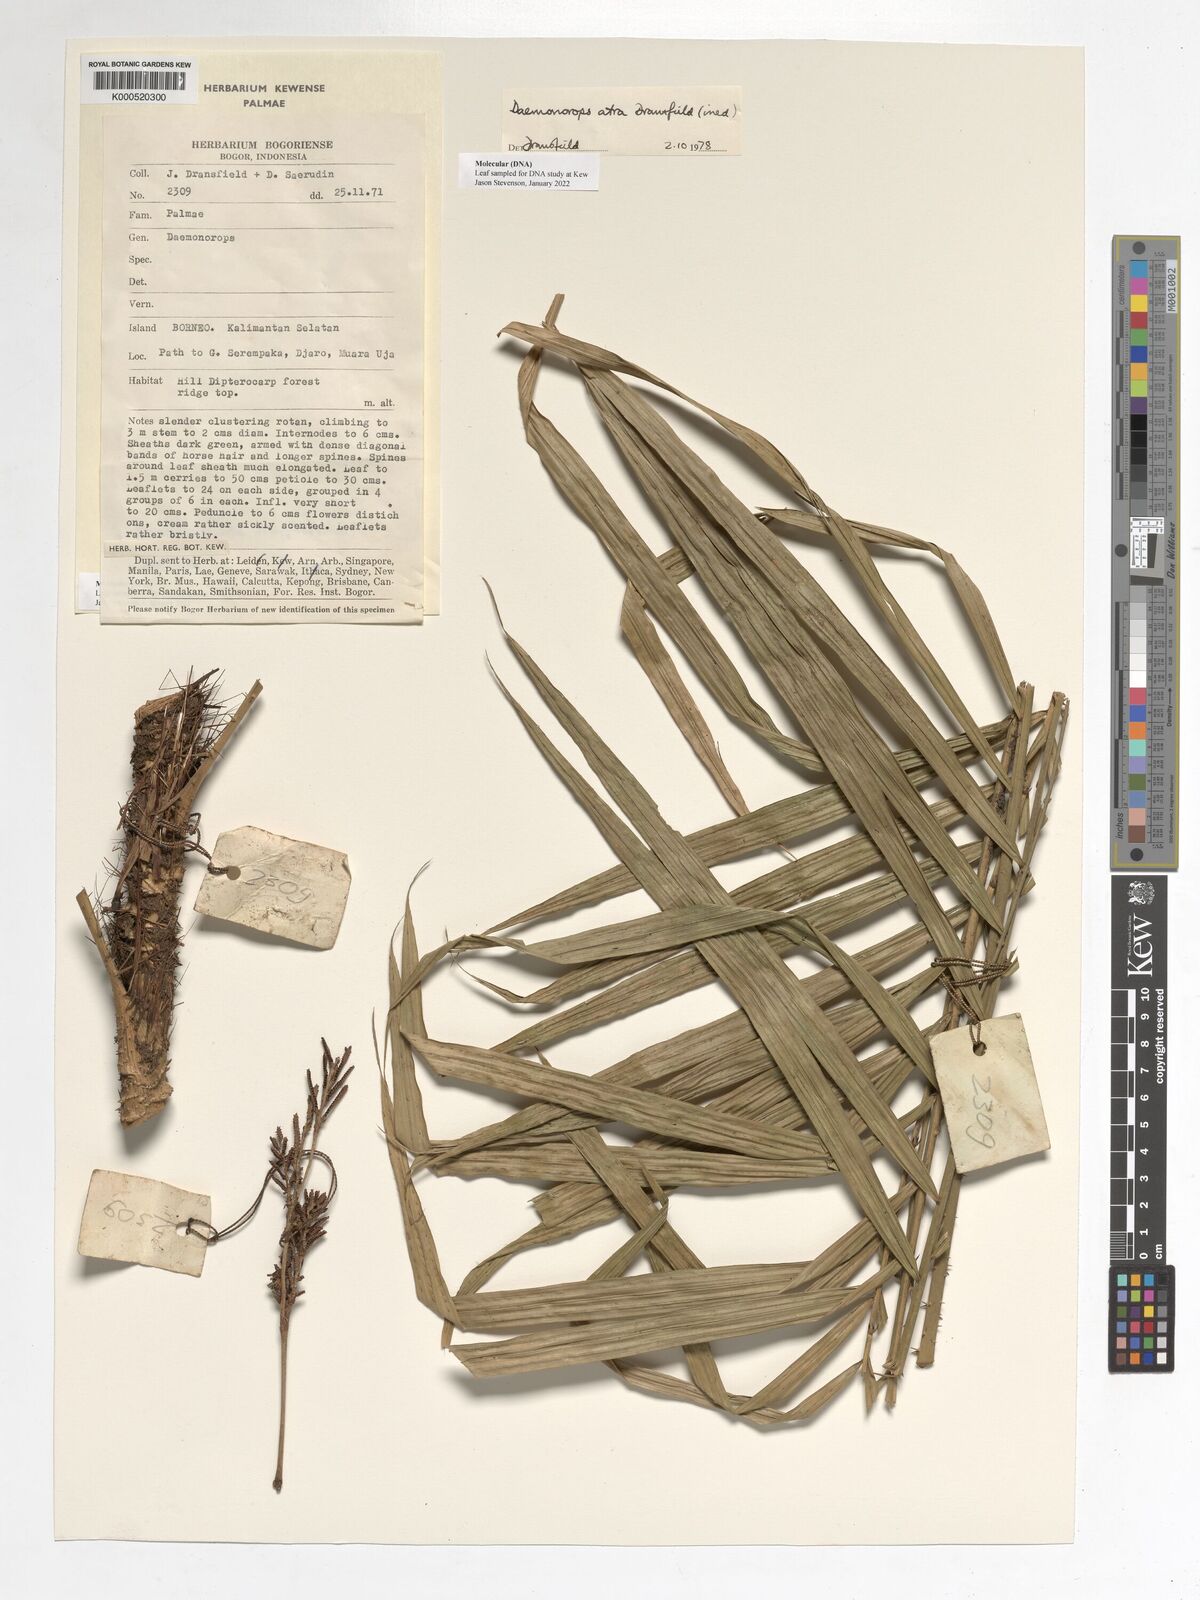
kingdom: Plantae
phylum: Tracheophyta
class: Liliopsida
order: Arecales
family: Arecaceae
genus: Calamus
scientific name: Calamus ater
